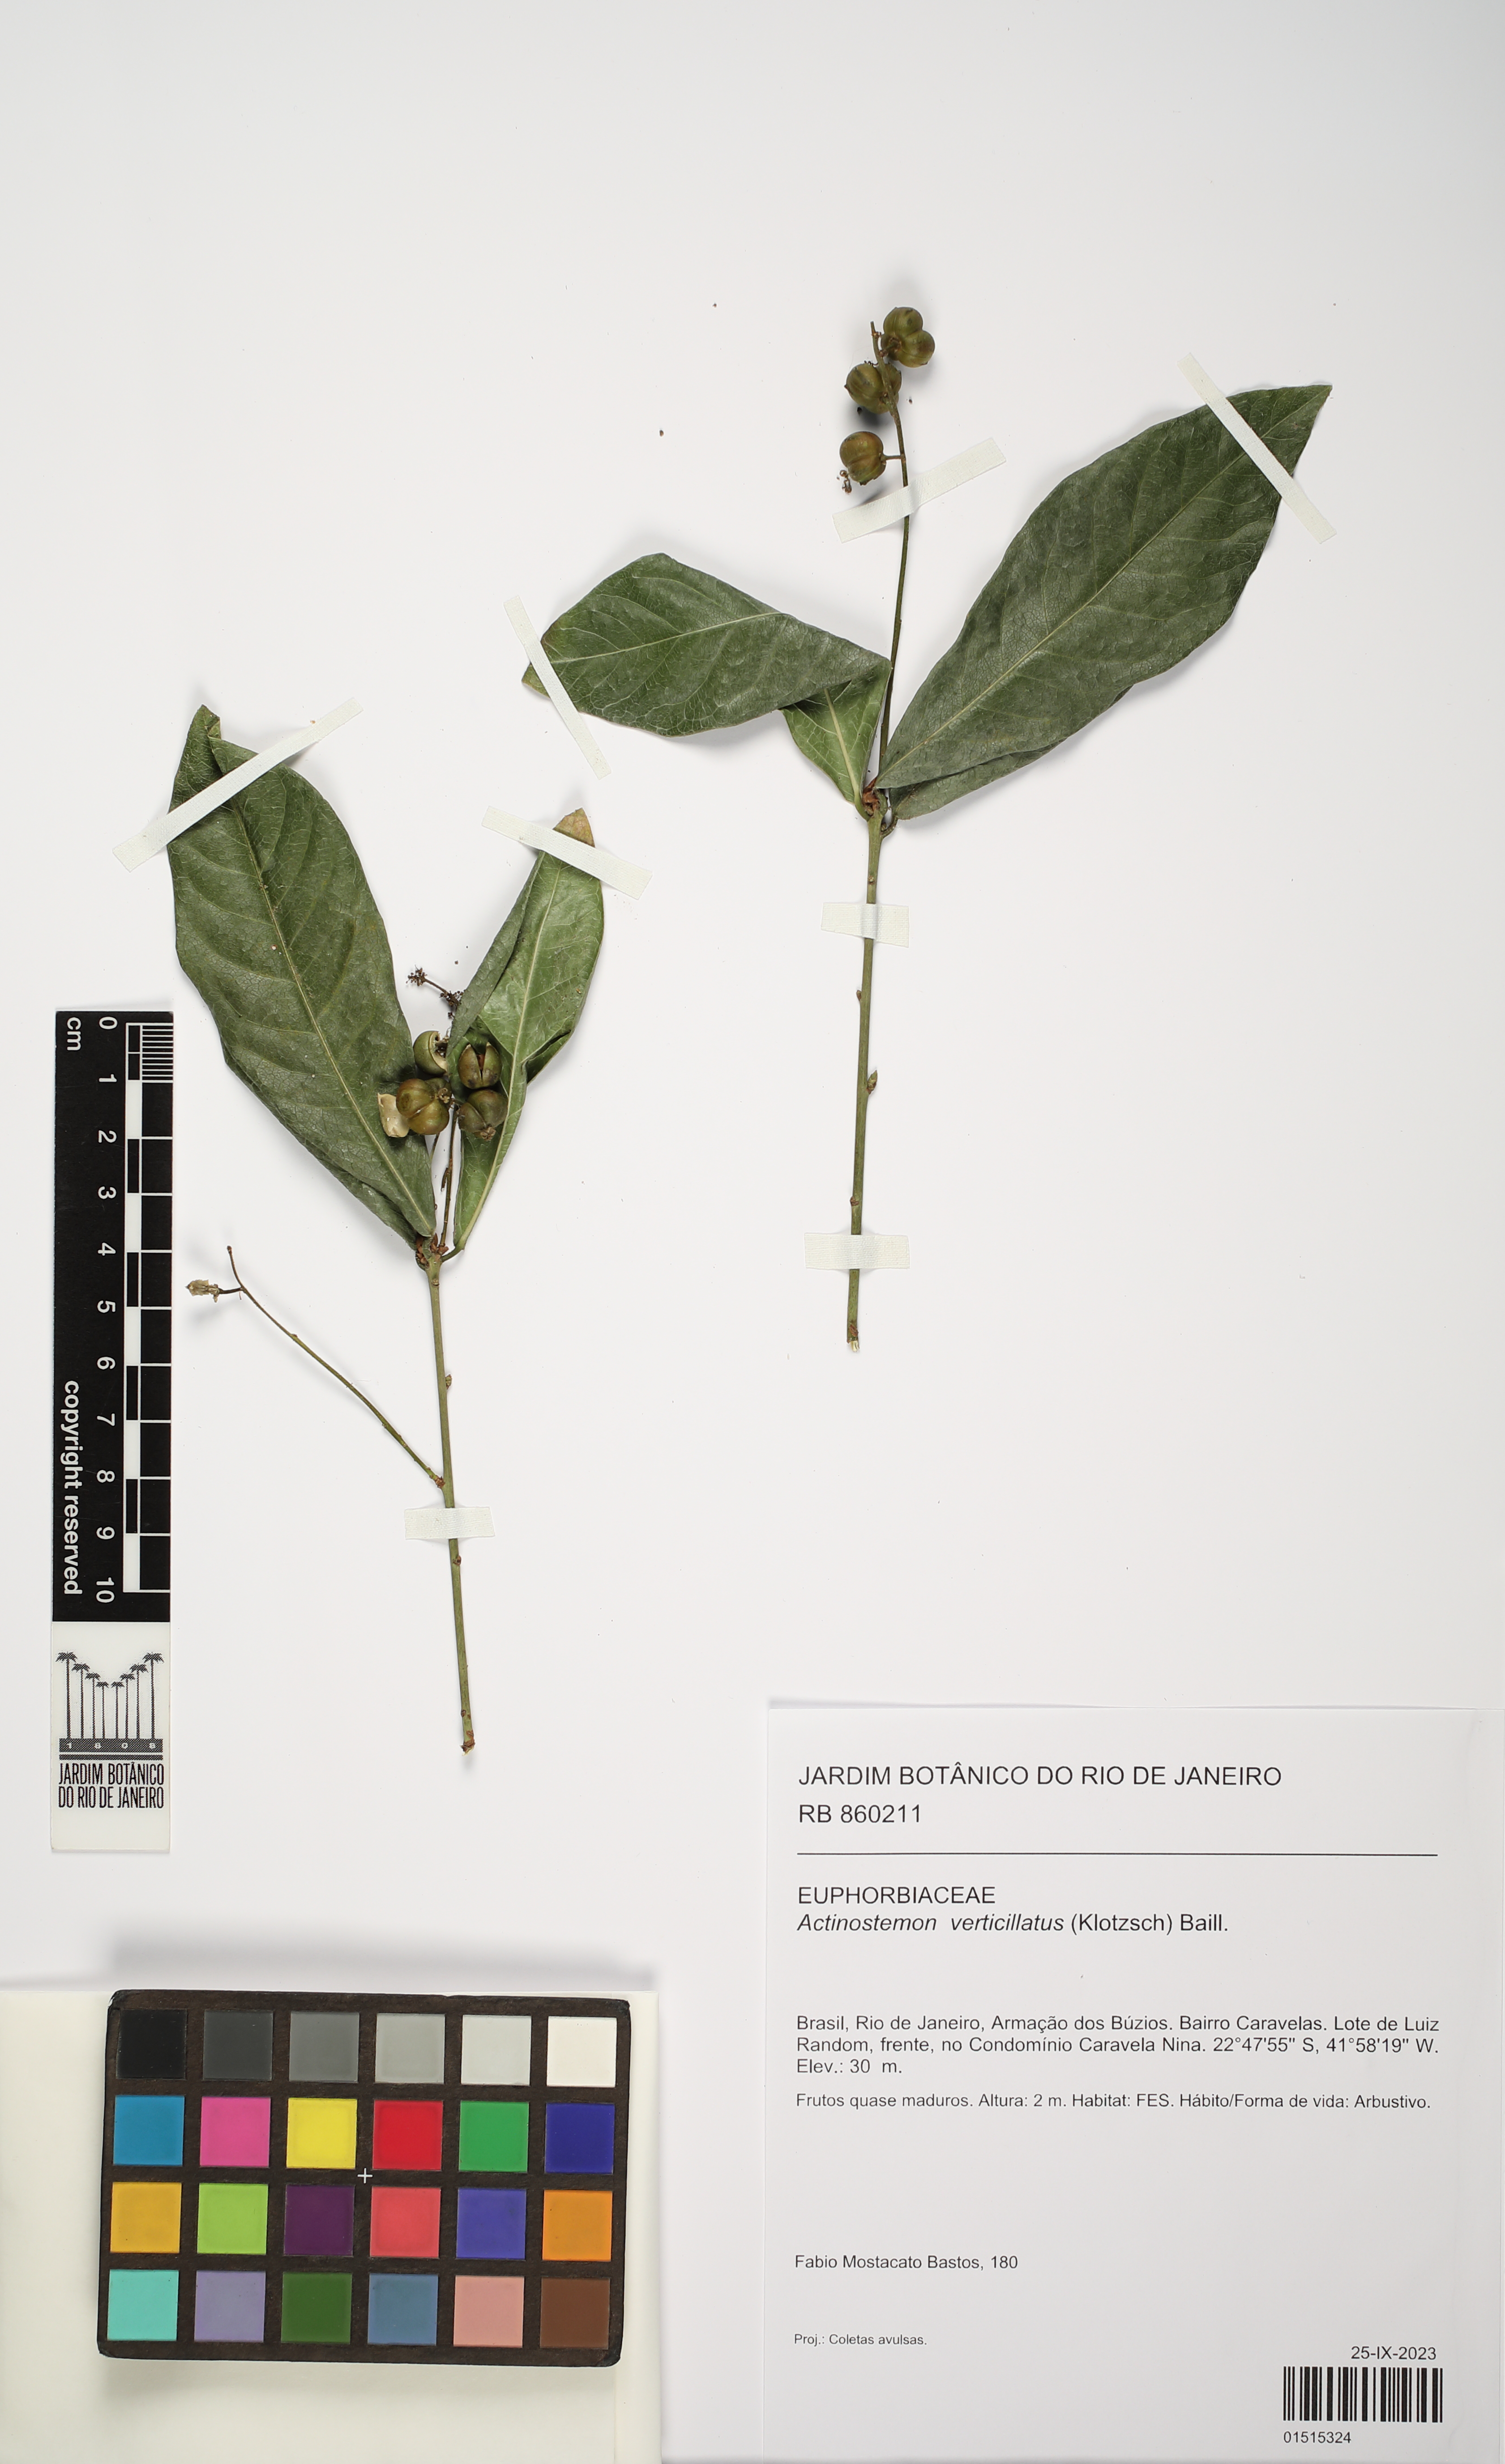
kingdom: Plantae
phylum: Tracheophyta
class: Magnoliopsida
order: Malpighiales
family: Euphorbiaceae
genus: Actinostemon
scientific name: Actinostemon verticillatus
